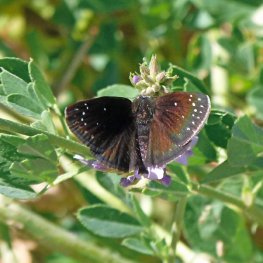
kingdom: Animalia
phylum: Arthropoda
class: Insecta
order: Lepidoptera
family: Hesperiidae
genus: Pholisora
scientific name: Pholisora catullus
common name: Common Sootywing
